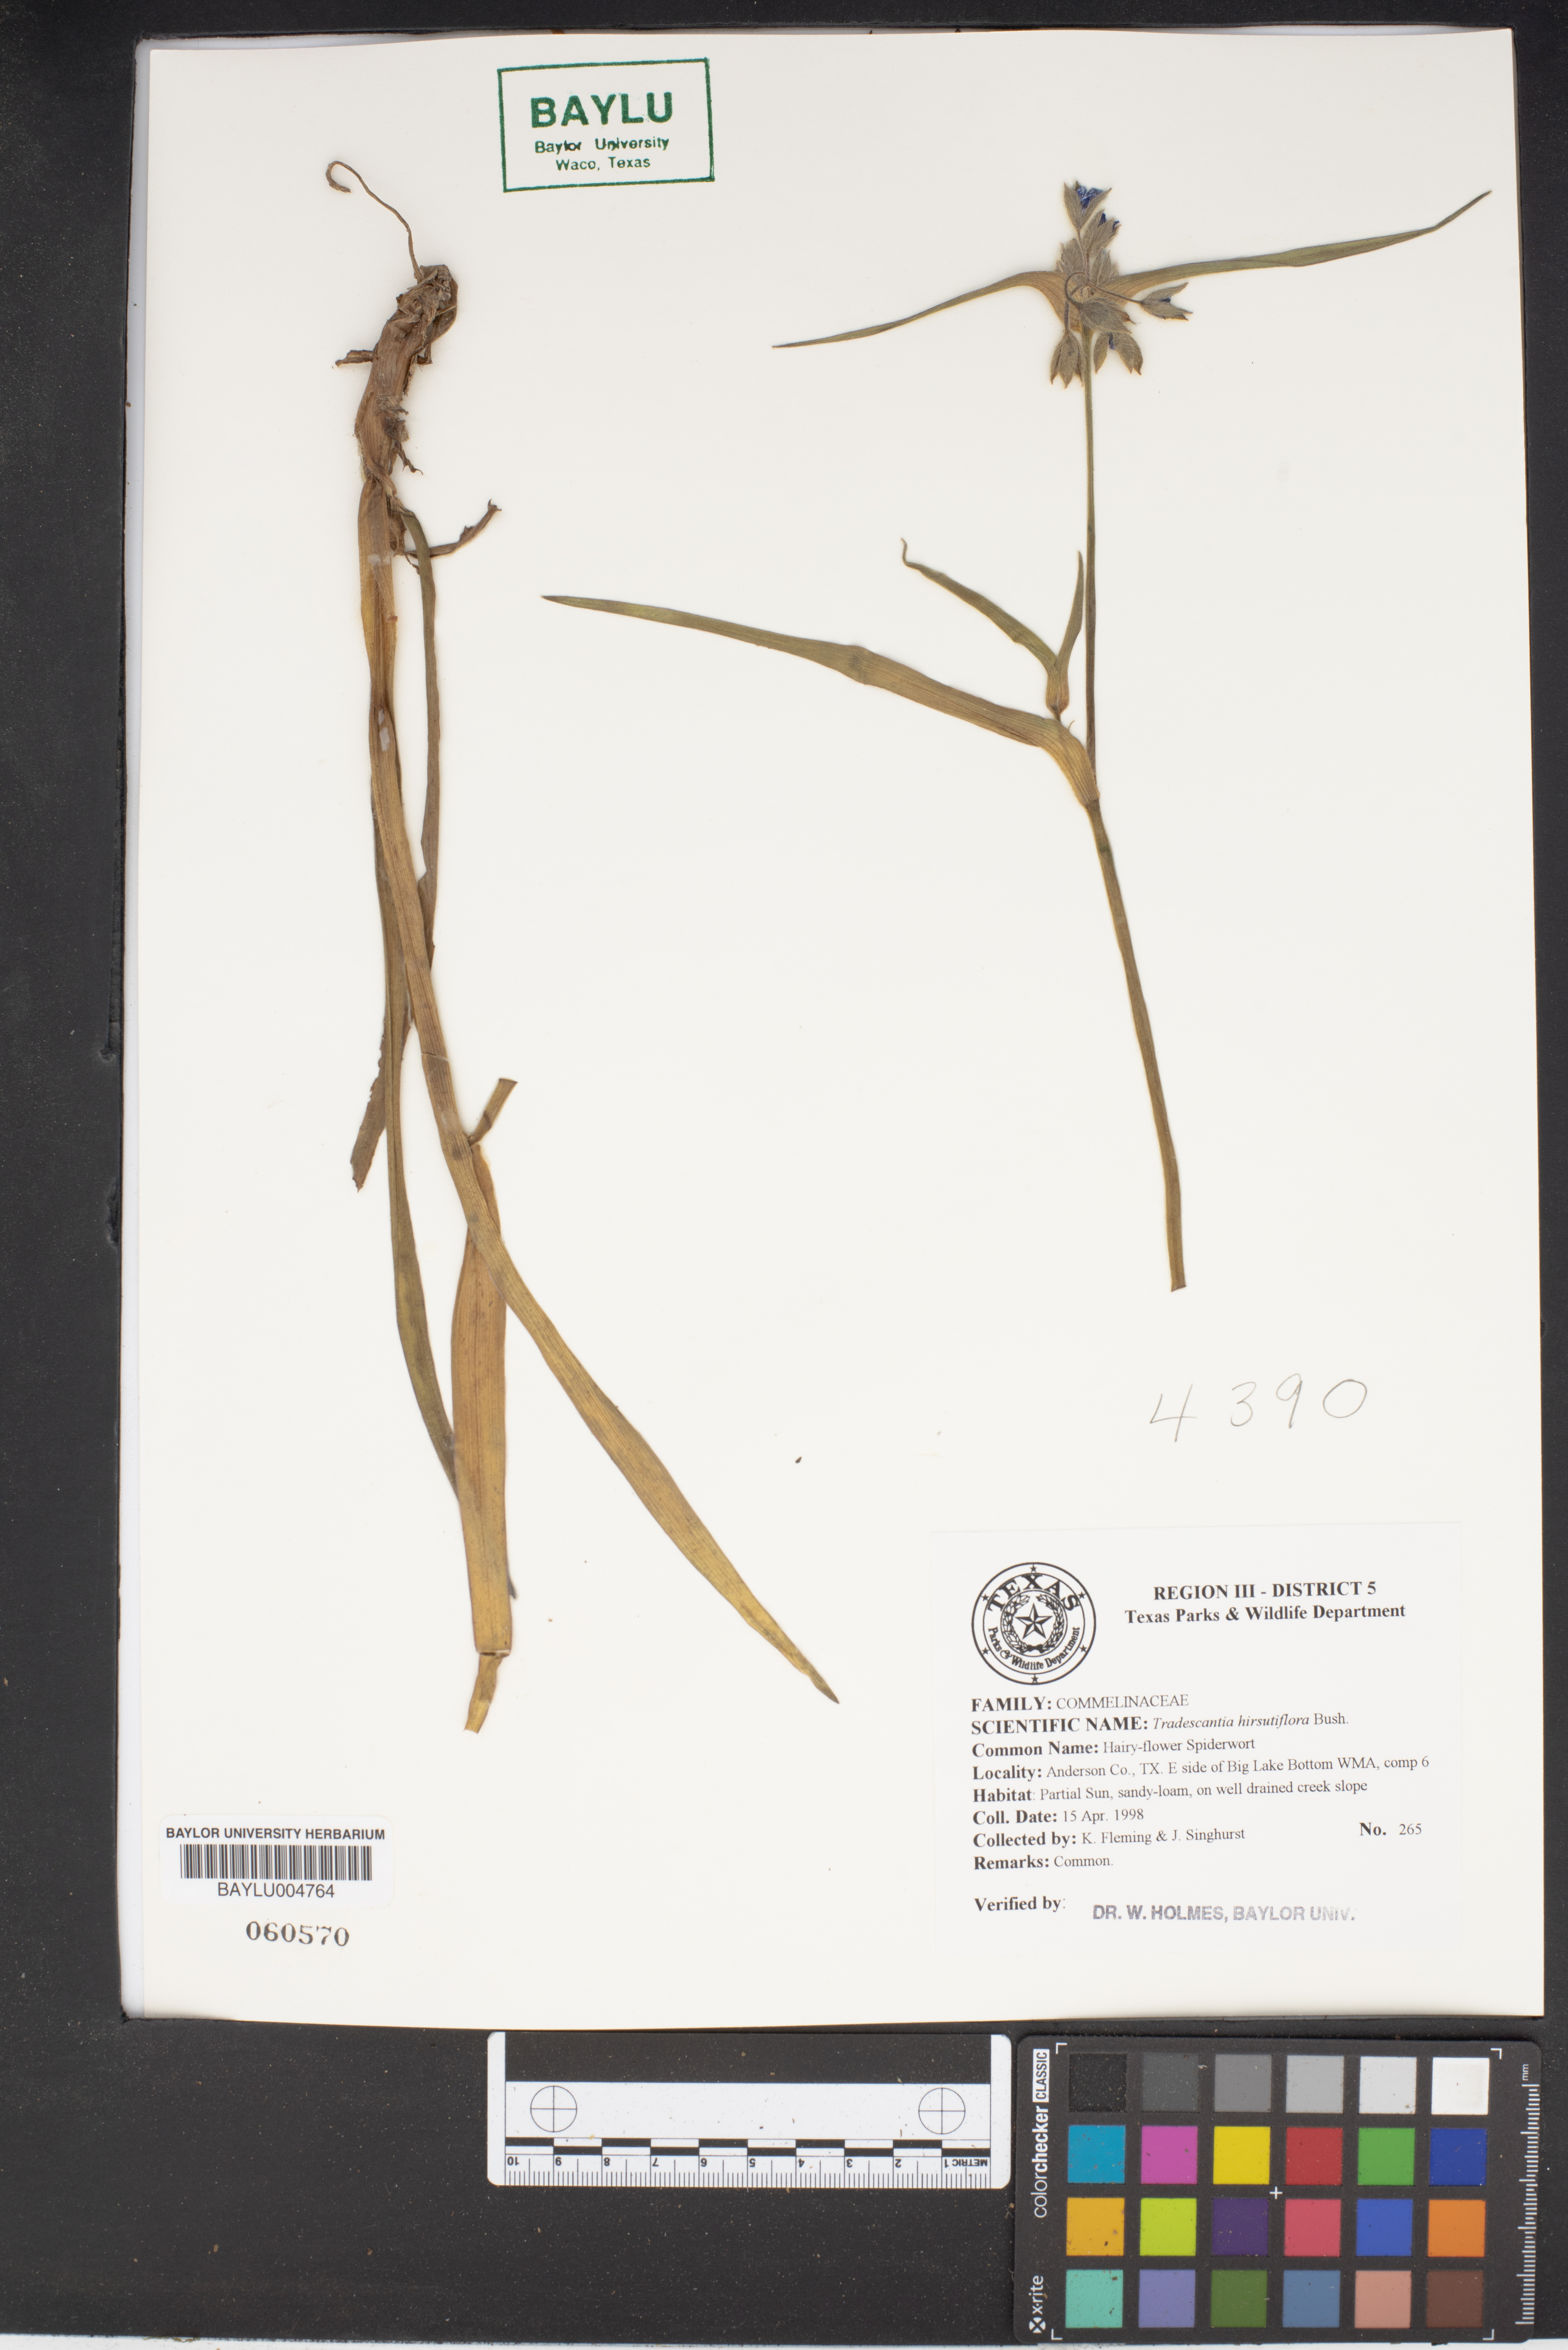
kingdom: Plantae
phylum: Tracheophyta
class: Liliopsida
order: Commelinales
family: Commelinaceae
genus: Tradescantia
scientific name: Tradescantia hirsutiflora
